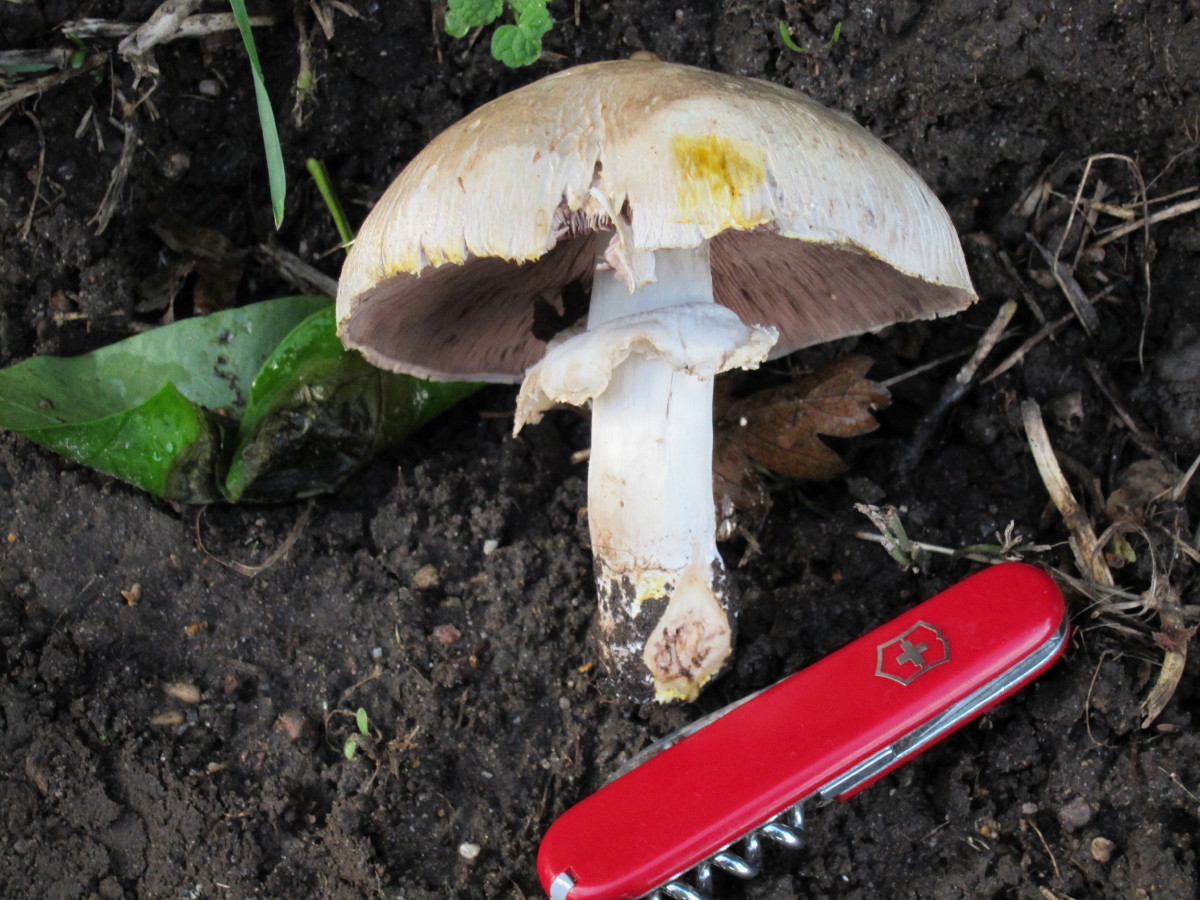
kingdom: Fungi
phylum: Basidiomycota
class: Agaricomycetes
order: Agaricales
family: Agaricaceae
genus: Agaricus
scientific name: Agaricus xanthodermus
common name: karbol-champignon
